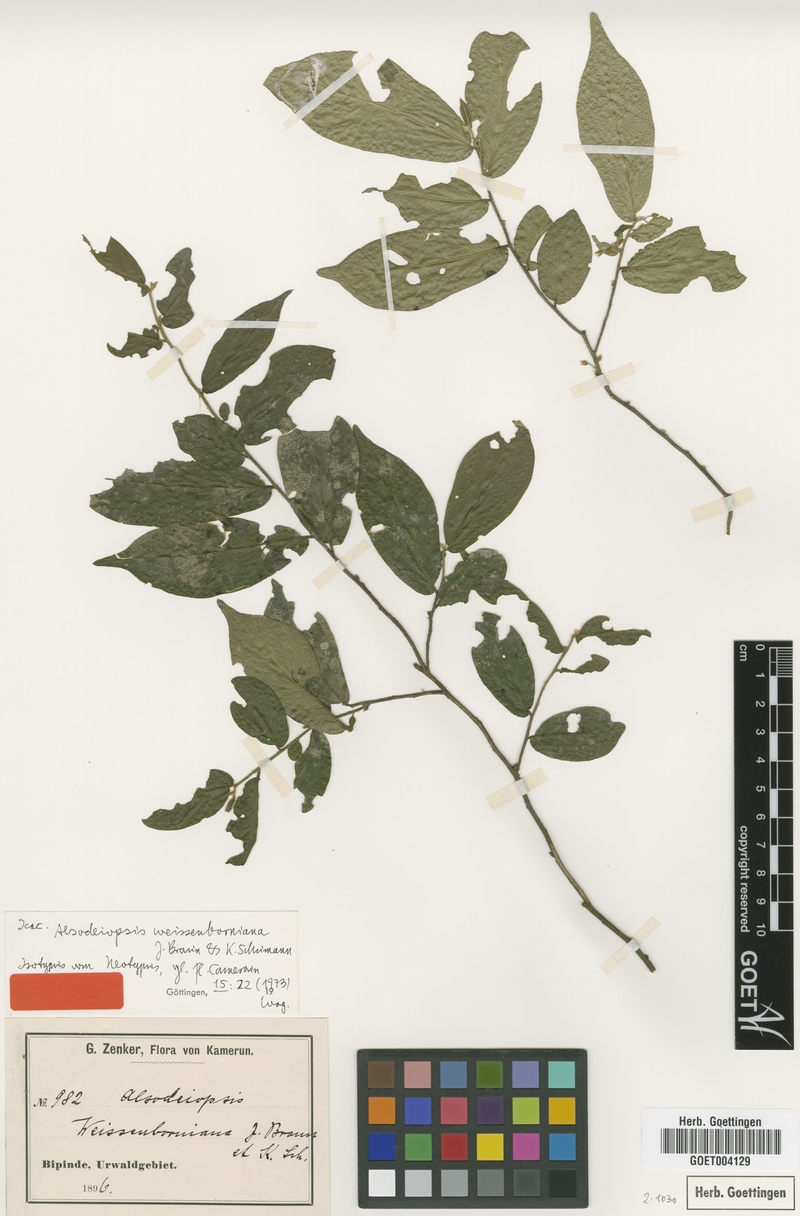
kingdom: Plantae
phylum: Tracheophyta
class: Magnoliopsida
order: Icacinales
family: Icacinaceae
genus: Alsodeiopsis
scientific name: Alsodeiopsis mannii
